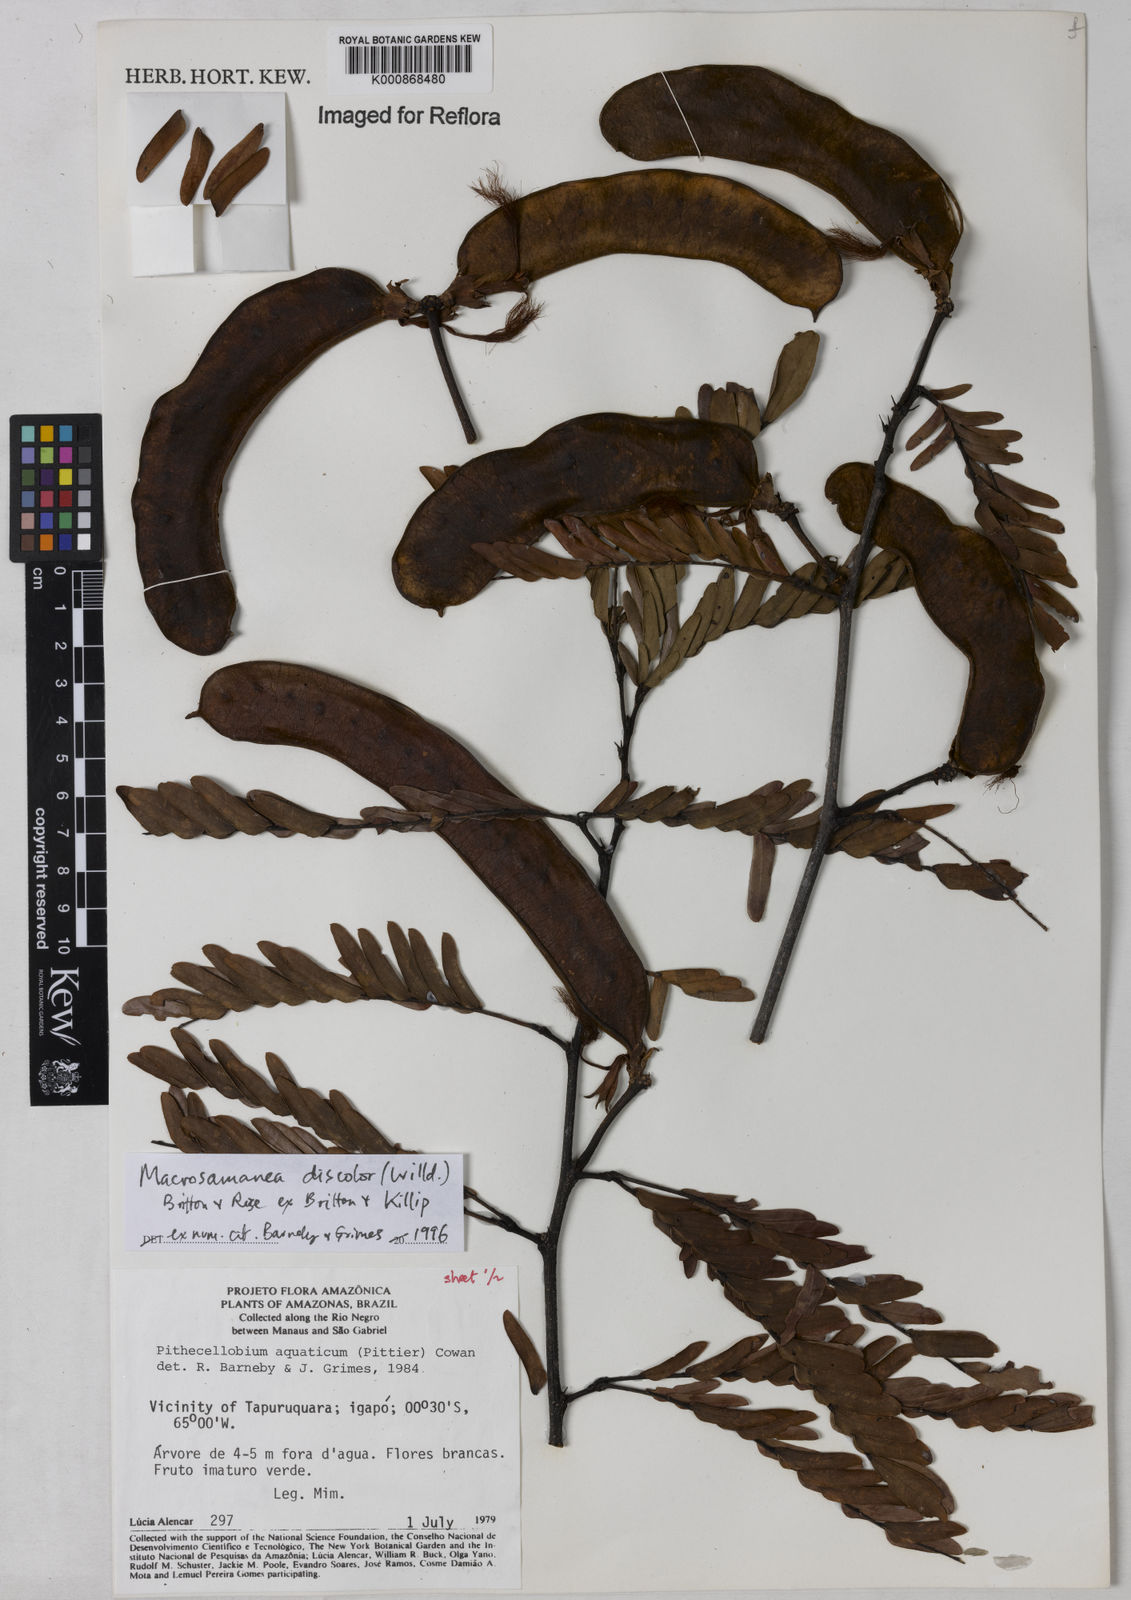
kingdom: Plantae
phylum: Tracheophyta
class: Magnoliopsida
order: Fabales
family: Fabaceae
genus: Macrosamanea
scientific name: Macrosamanea
